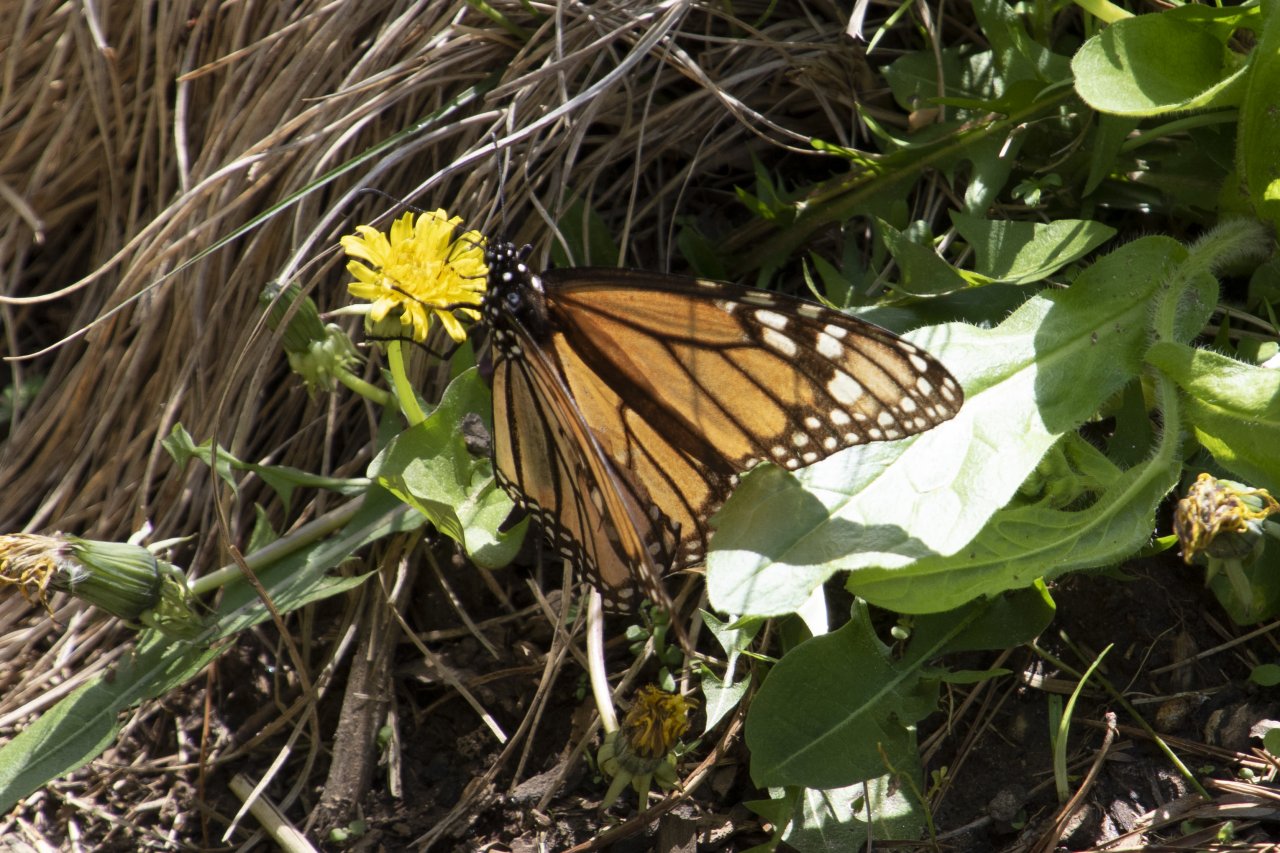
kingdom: Animalia
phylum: Arthropoda
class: Insecta
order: Lepidoptera
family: Nymphalidae
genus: Danaus
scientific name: Danaus plexippus
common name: Monarch
